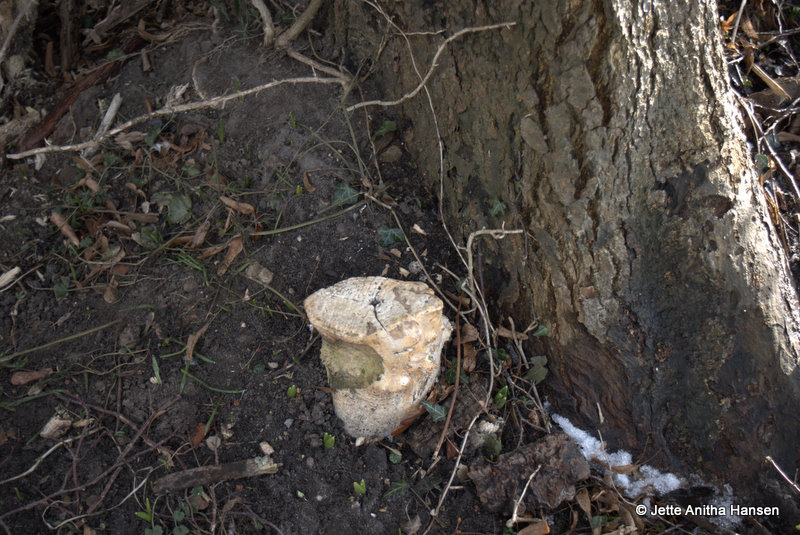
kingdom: Fungi
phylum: Basidiomycota
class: Agaricomycetes
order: Agaricales
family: Radulomycetaceae
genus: Radulomyces
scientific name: Radulomyces confluens
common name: glat naftalinskind
